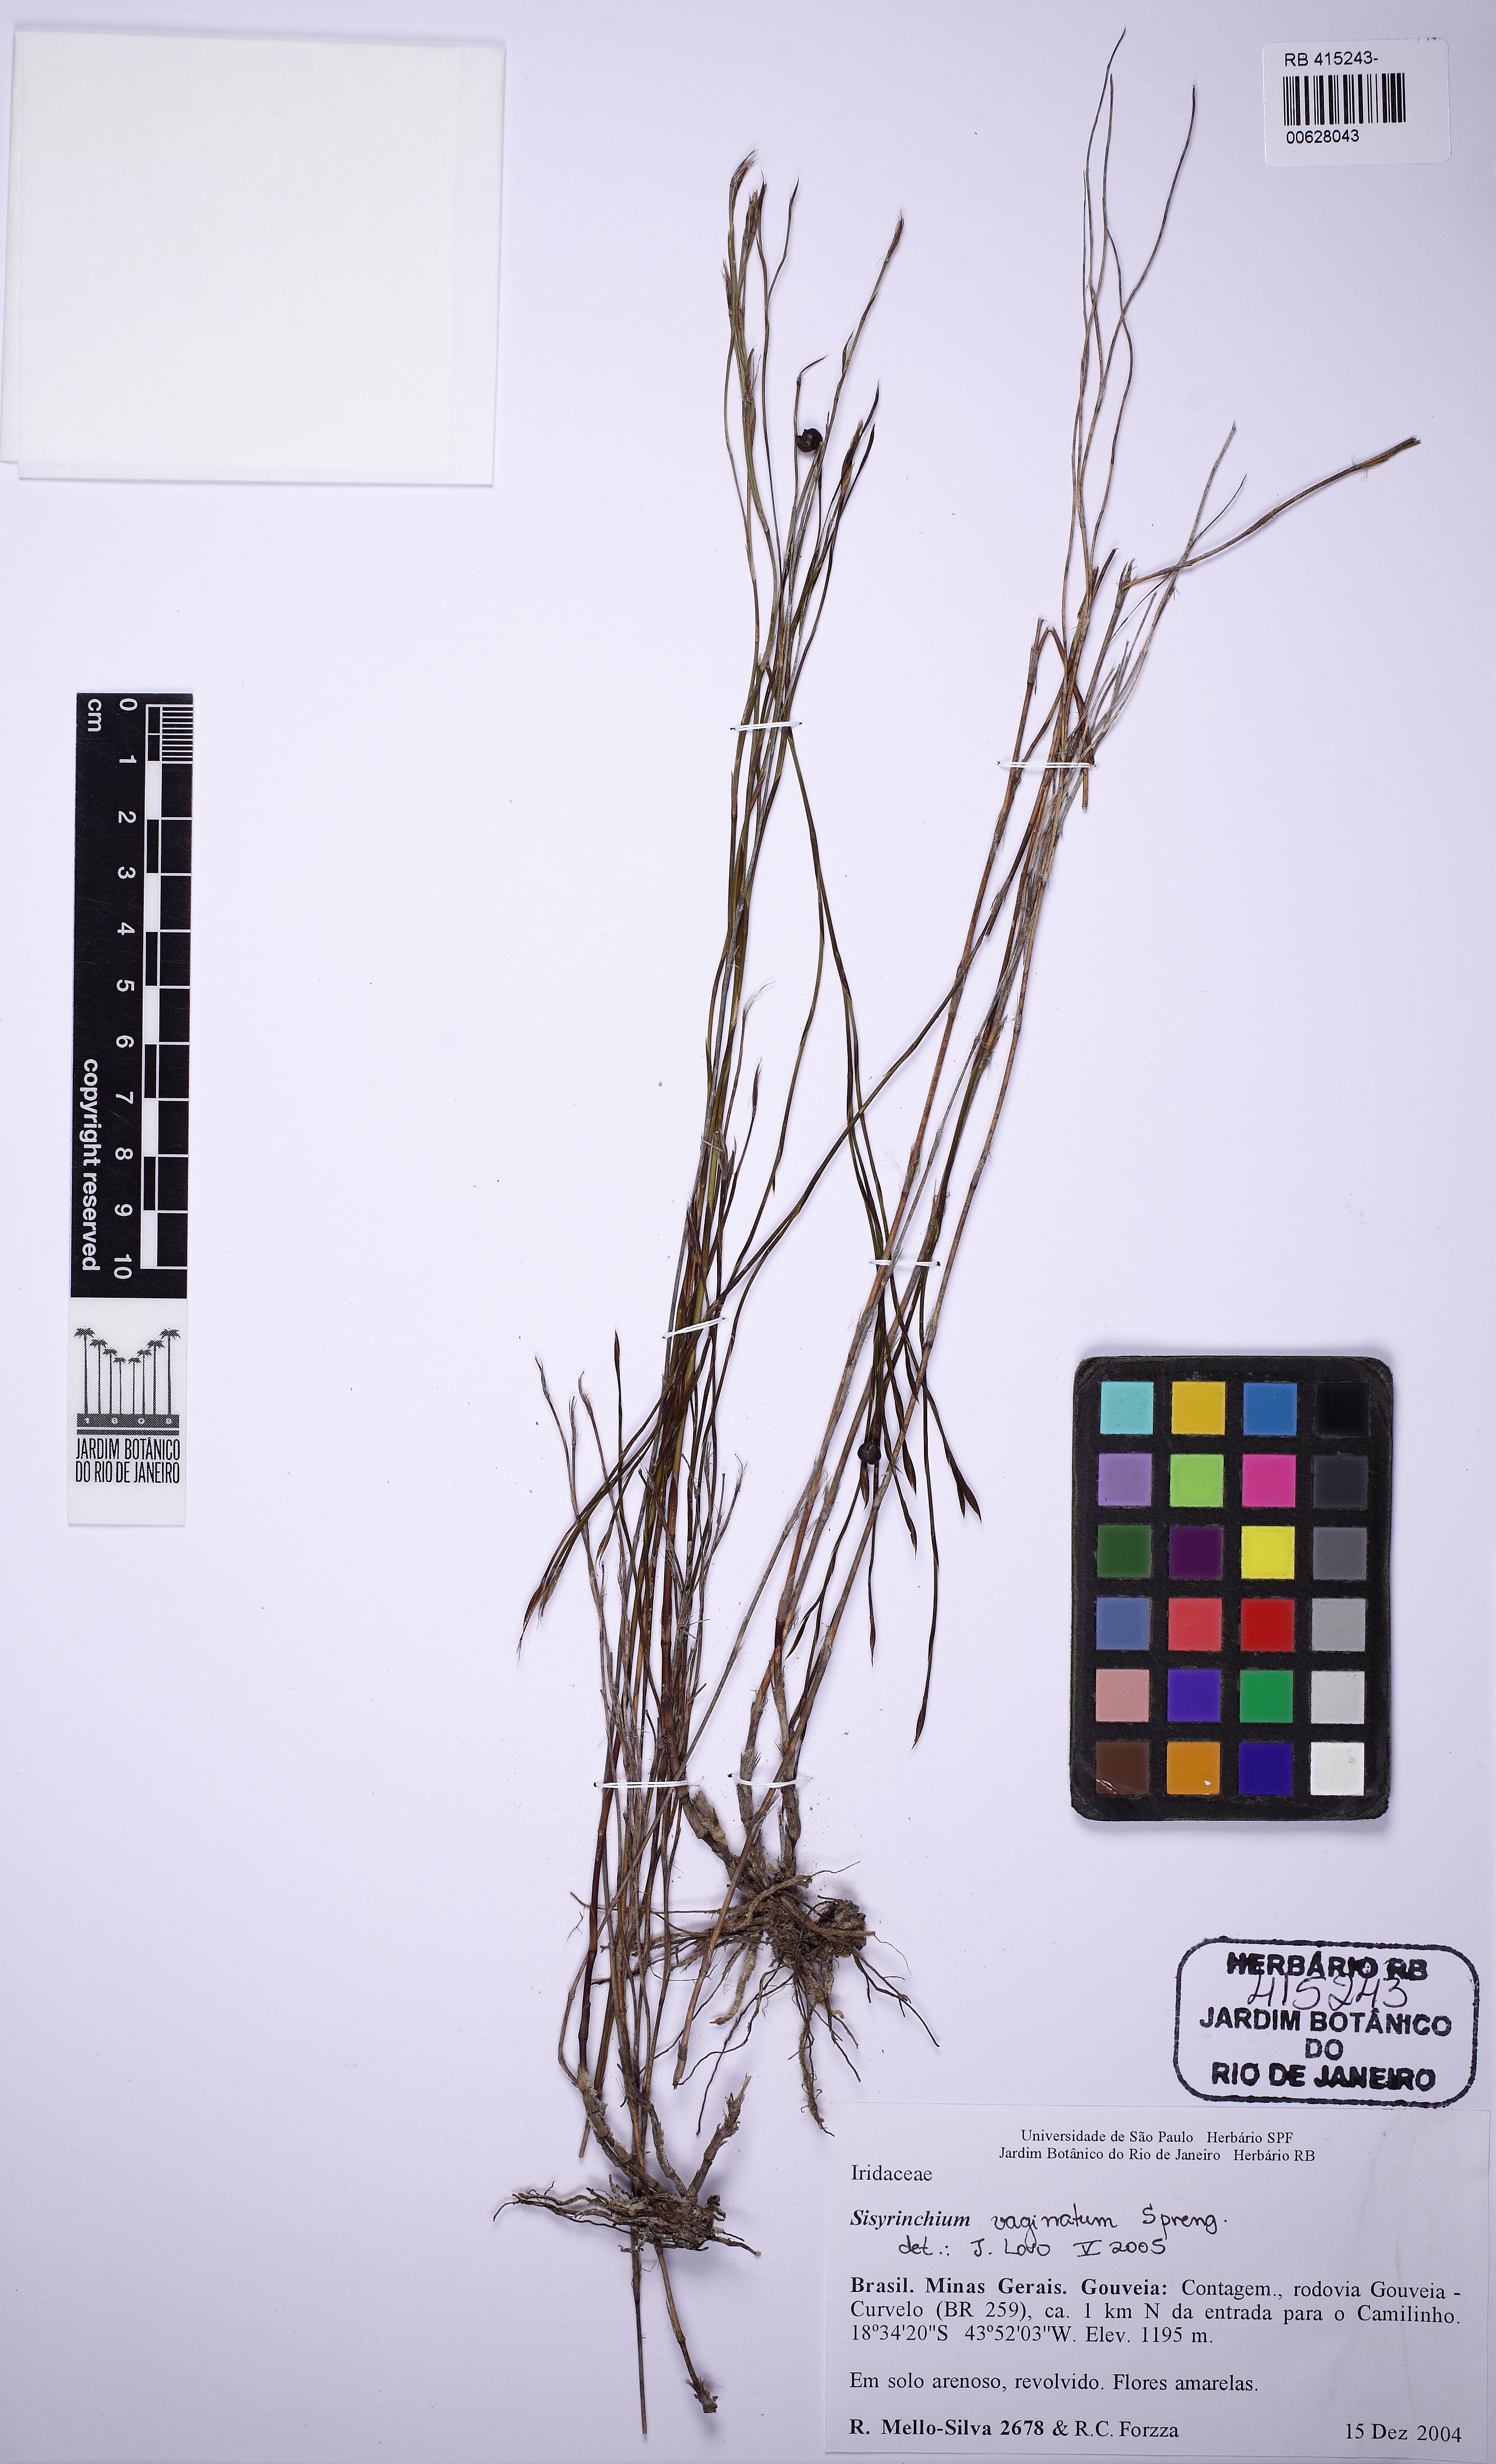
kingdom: Plantae
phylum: Tracheophyta
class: Liliopsida
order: Asparagales
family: Iridaceae
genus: Sisyrinchium
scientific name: Sisyrinchium vaginatum
